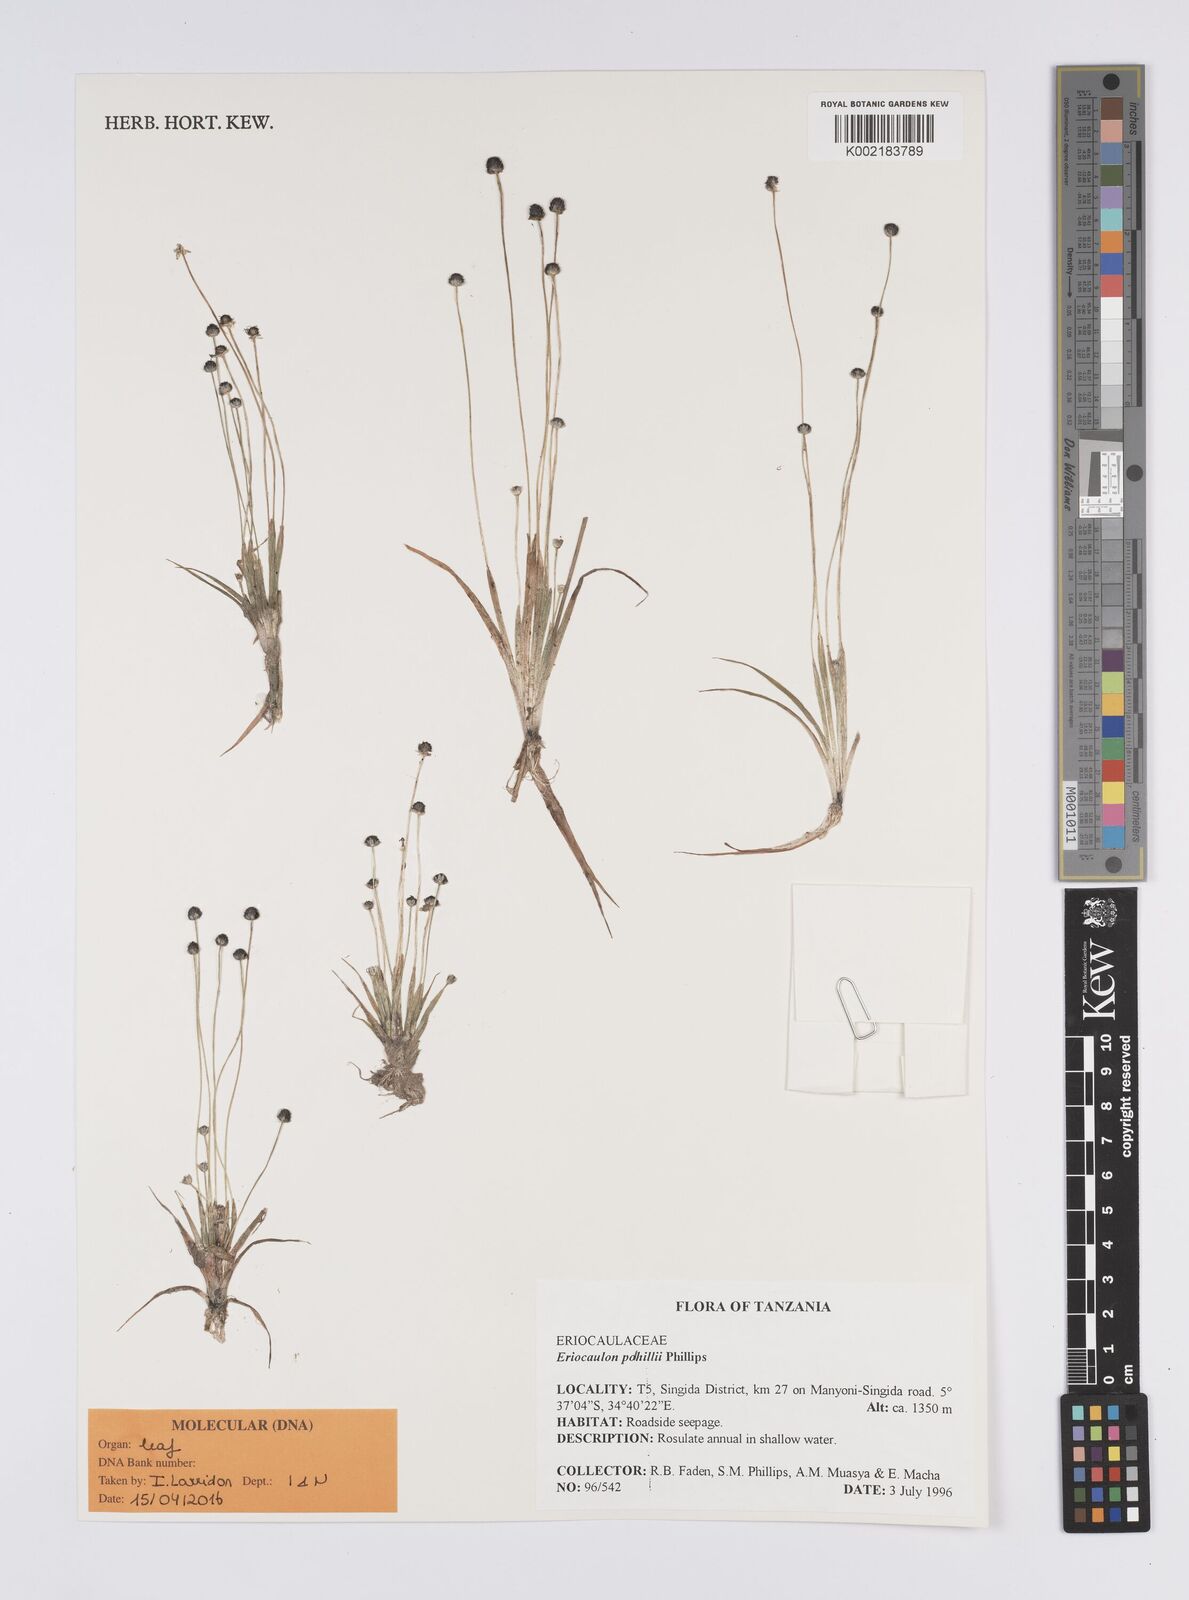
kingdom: Plantae
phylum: Tracheophyta
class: Liliopsida
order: Poales
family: Eriocaulaceae
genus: Eriocaulon
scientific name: Eriocaulon polhillii
